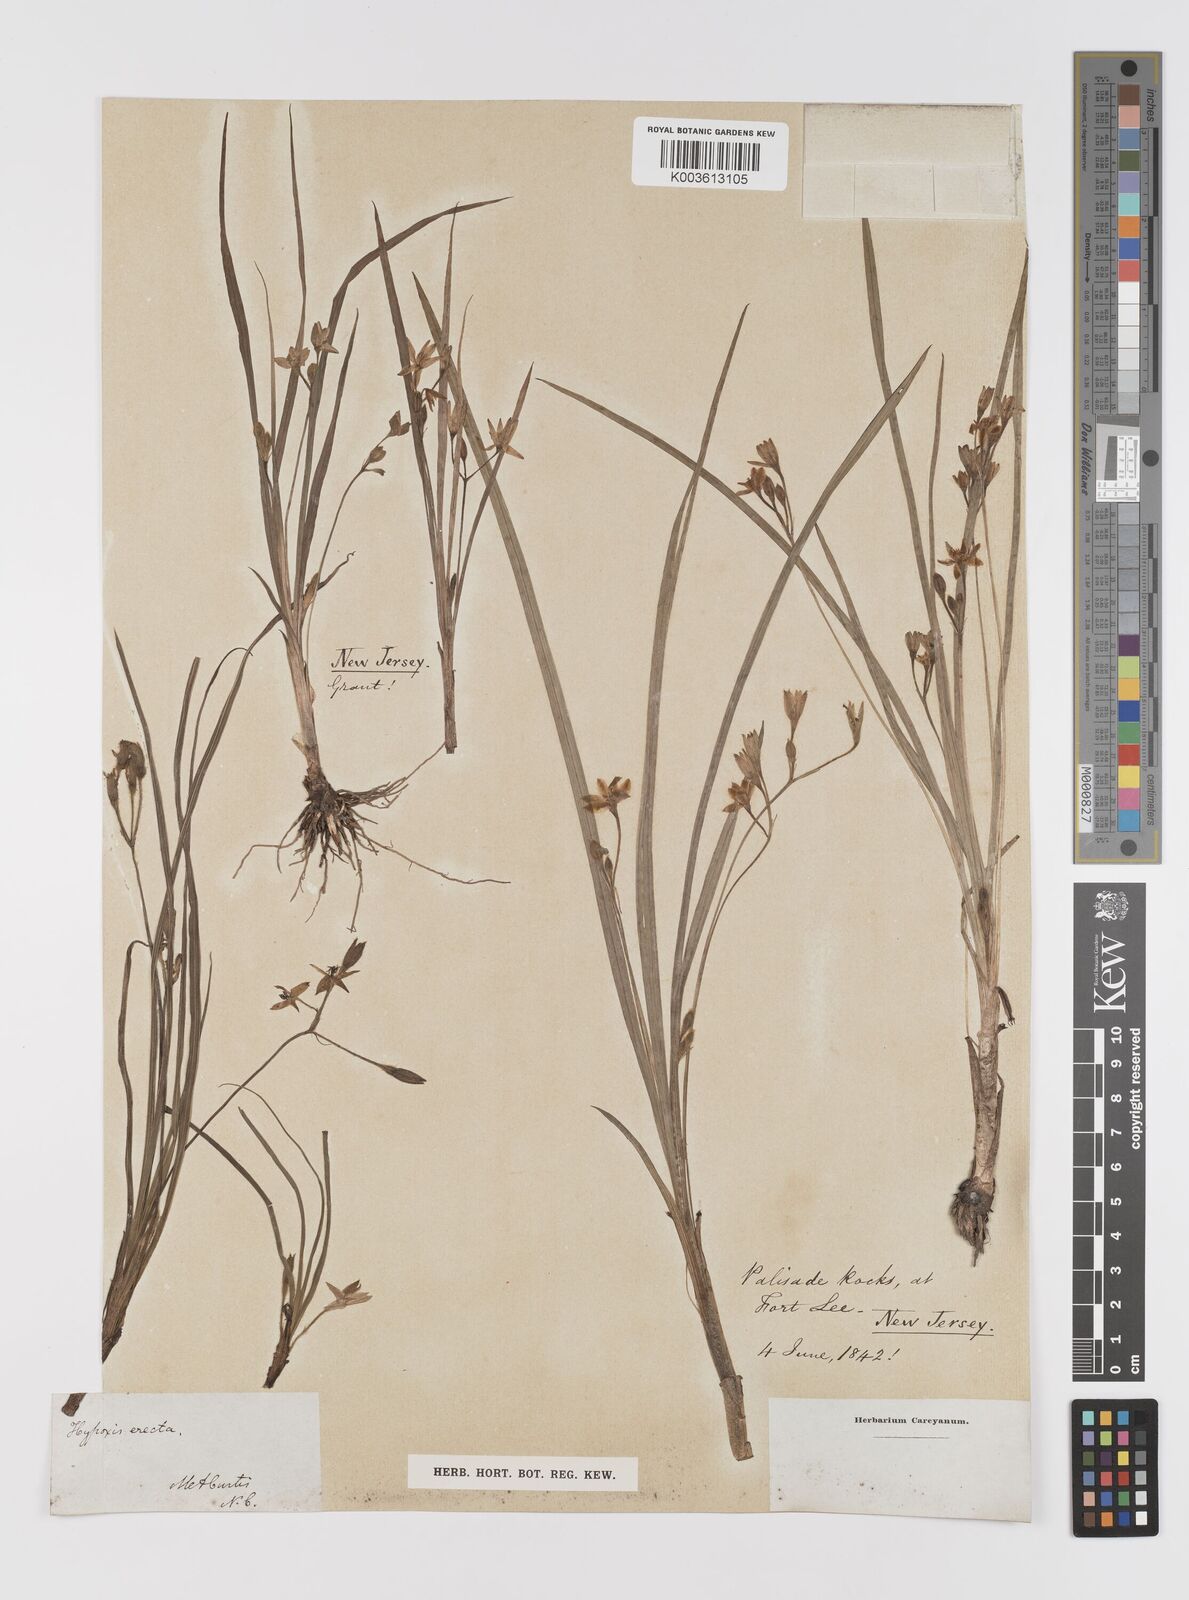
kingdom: Plantae
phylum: Tracheophyta
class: Liliopsida
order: Asparagales
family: Hypoxidaceae
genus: Hypoxis
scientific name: Hypoxis hirsuta
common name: Common goldstar
